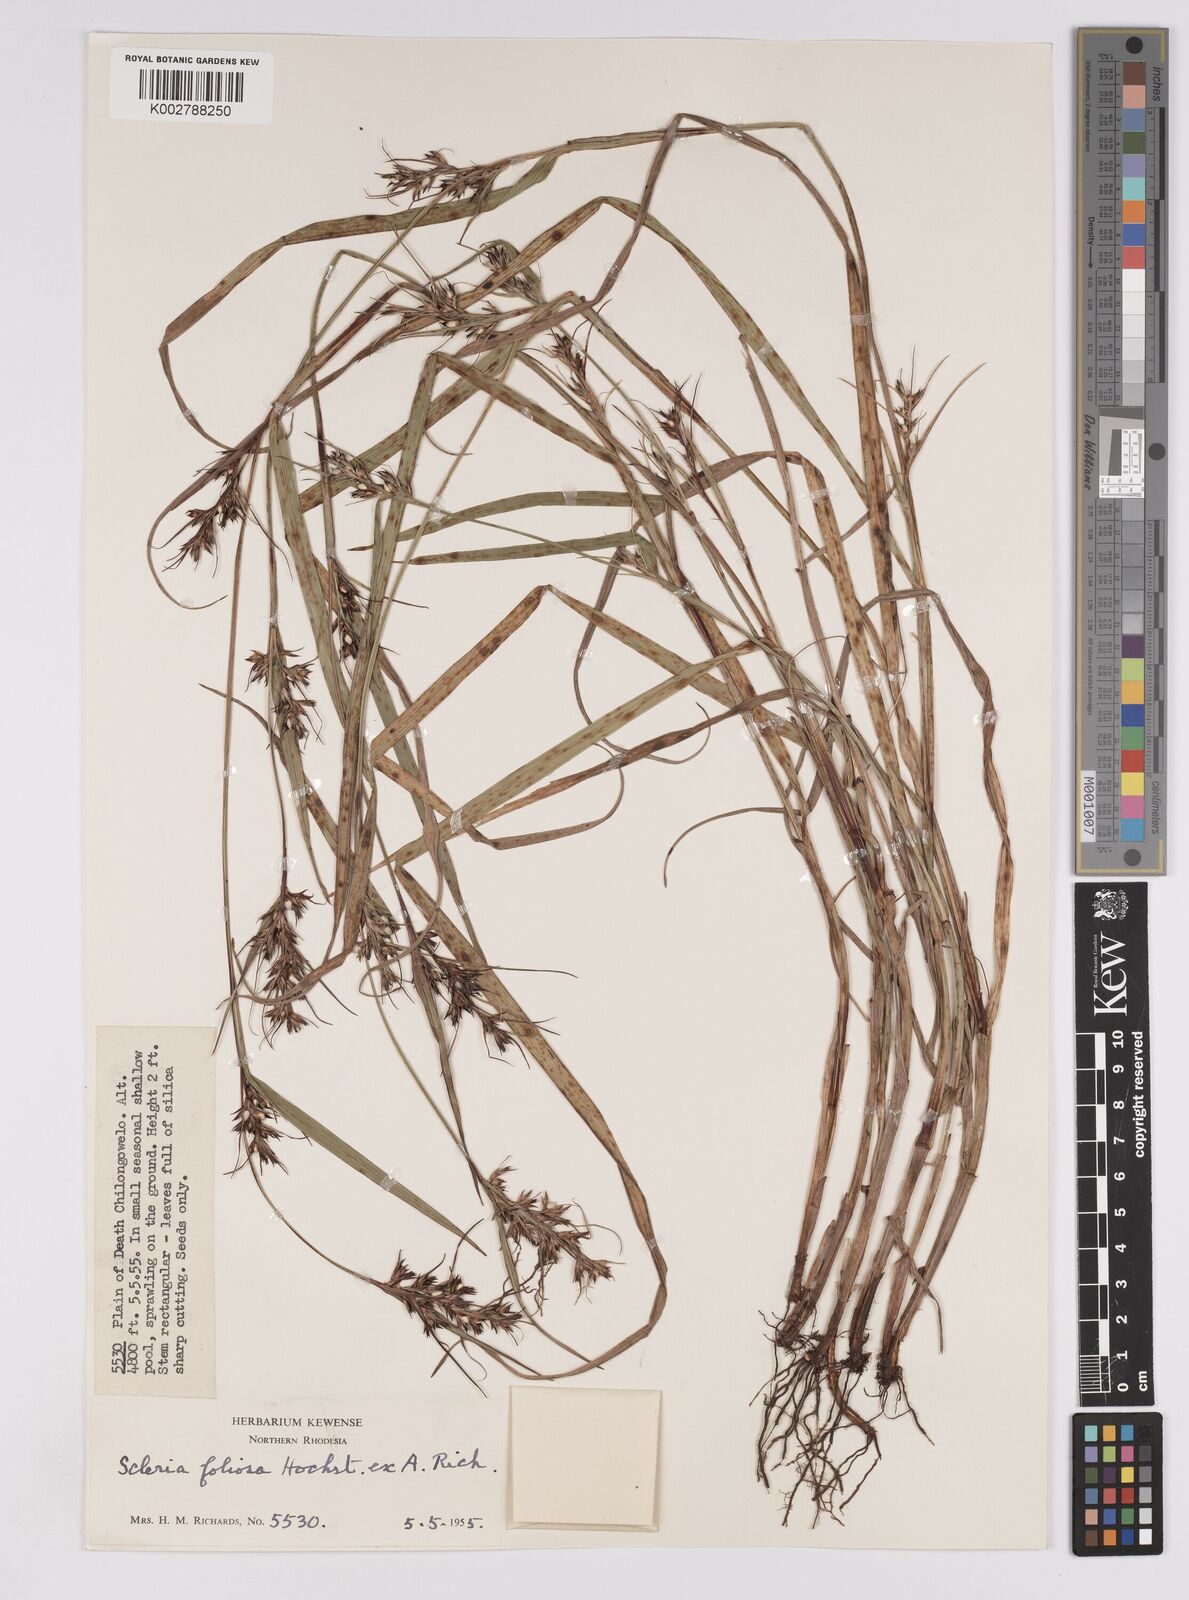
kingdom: Plantae
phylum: Tracheophyta
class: Liliopsida
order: Poales
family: Cyperaceae
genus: Scleria
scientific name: Scleria foliosa
